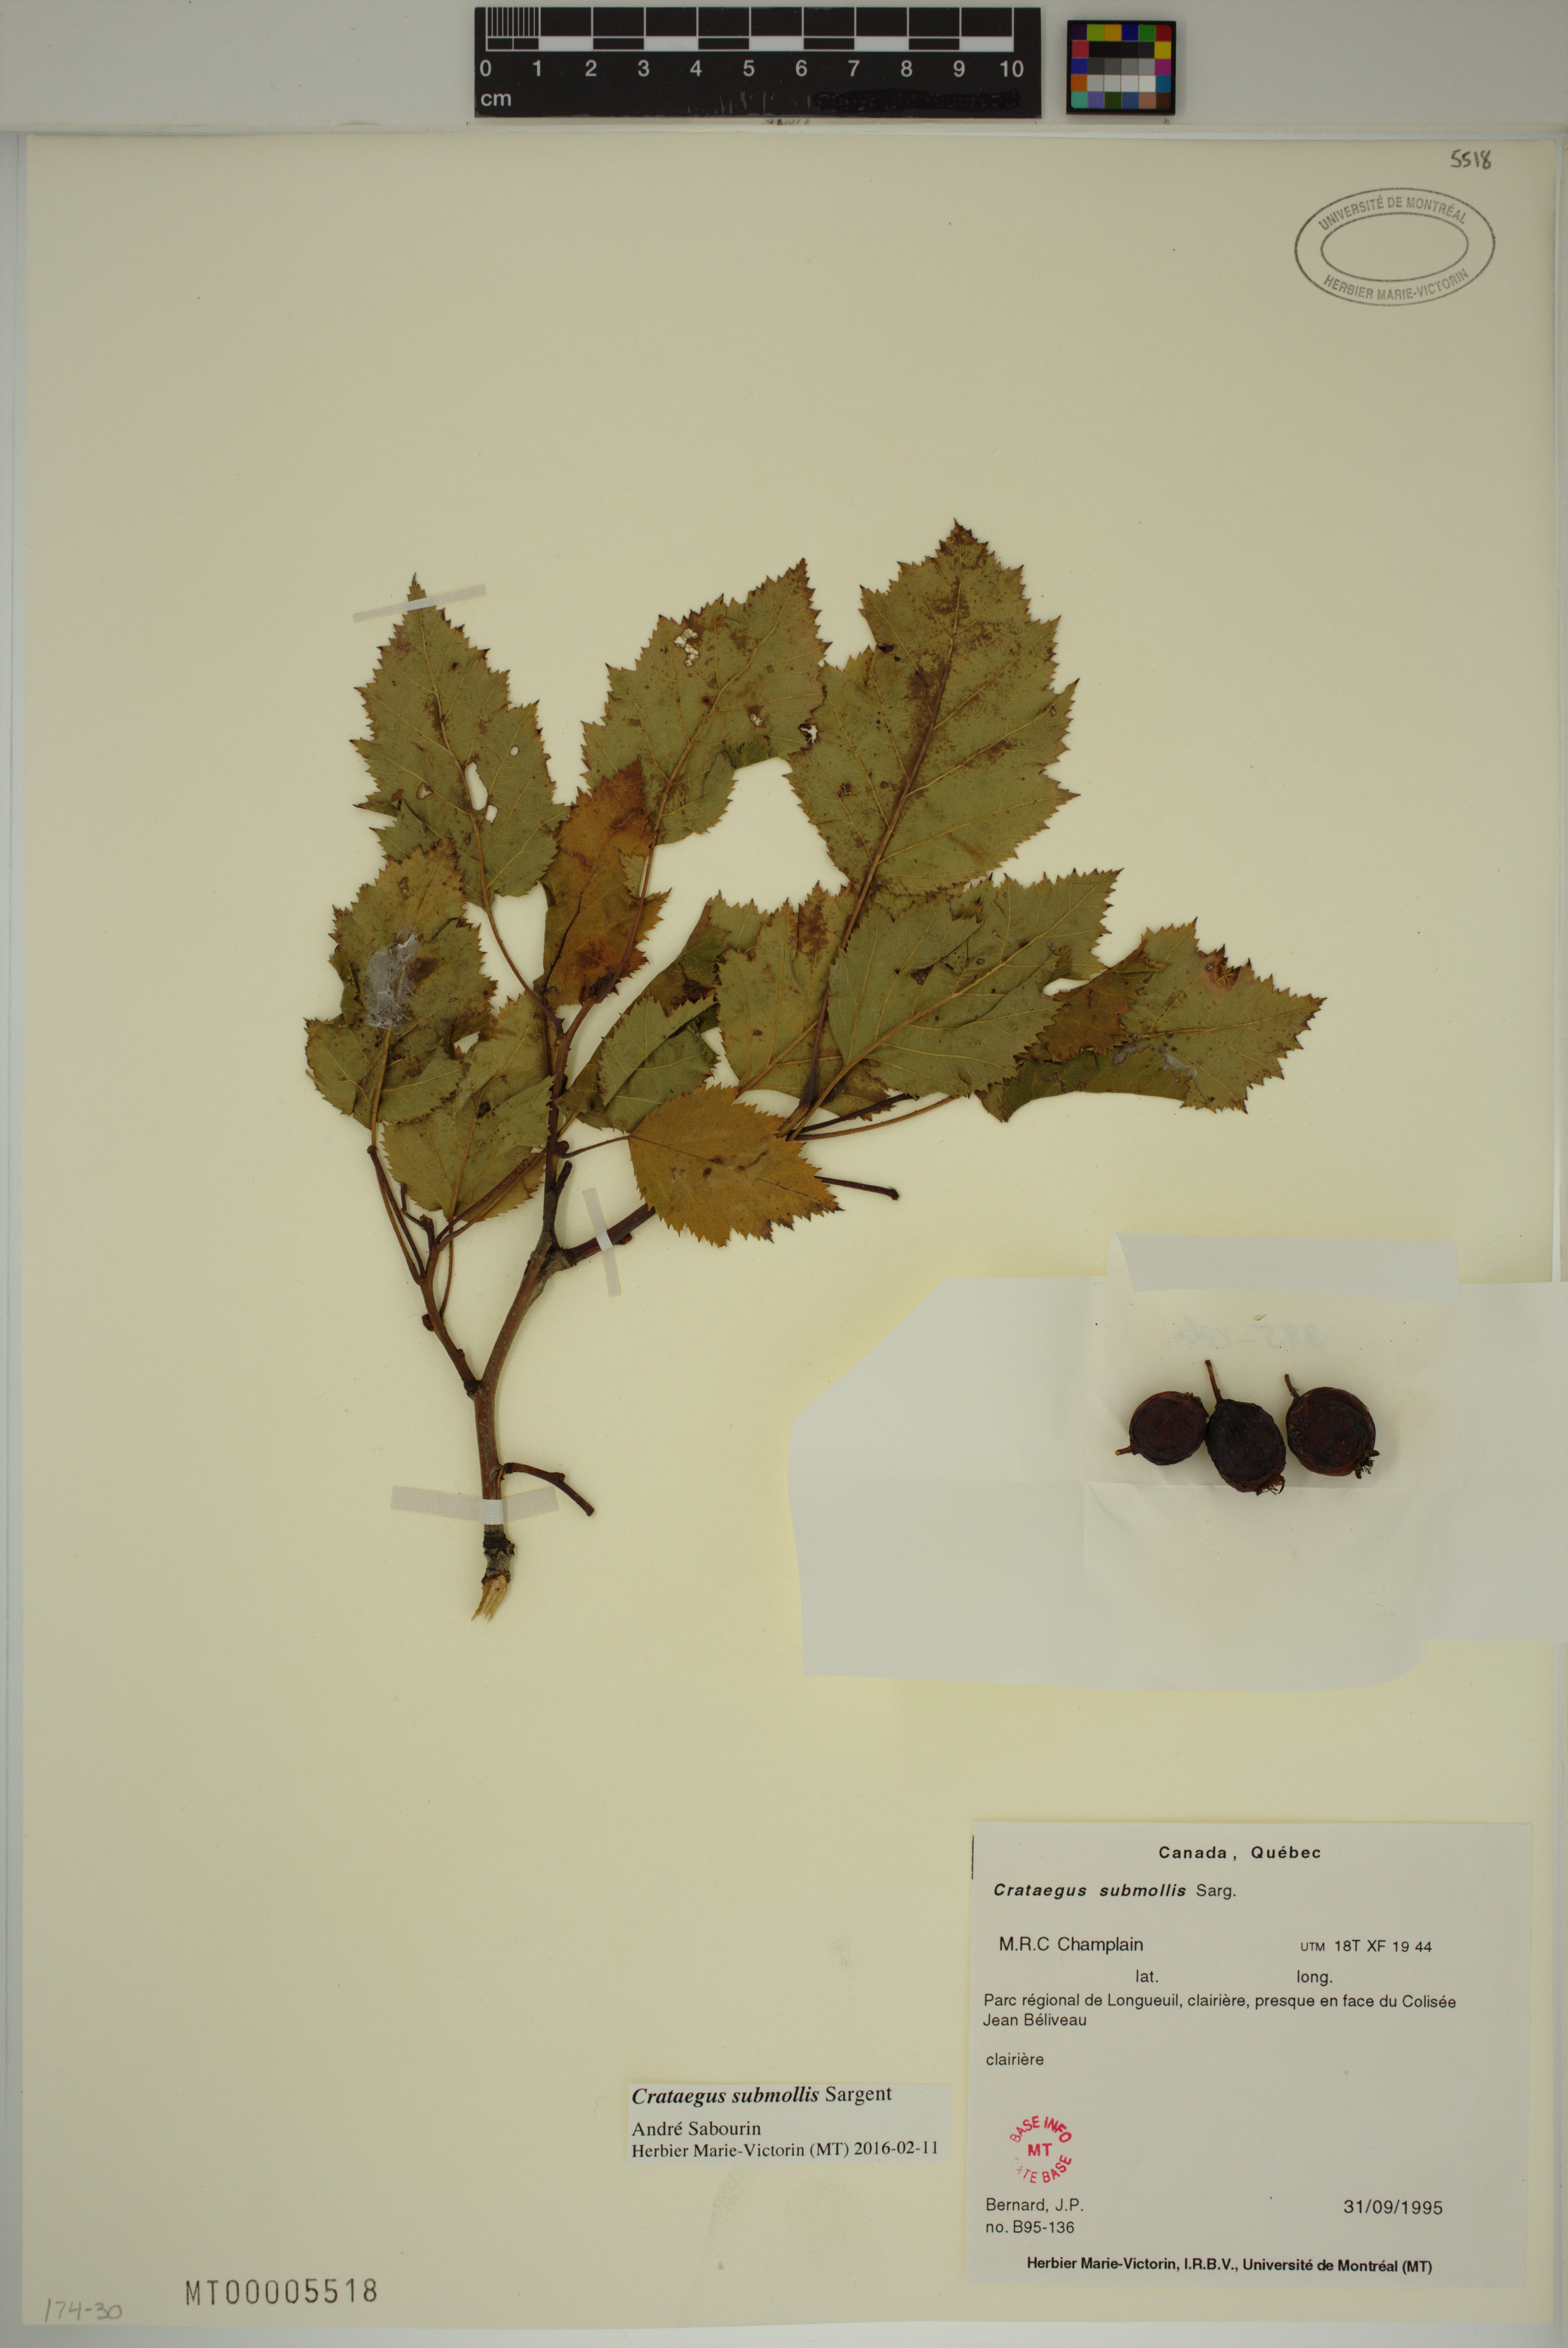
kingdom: Plantae
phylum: Tracheophyta
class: Magnoliopsida
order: Rosales
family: Rosaceae
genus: Crataegus
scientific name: Crataegus submollis
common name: Hairy cockspurthorn
